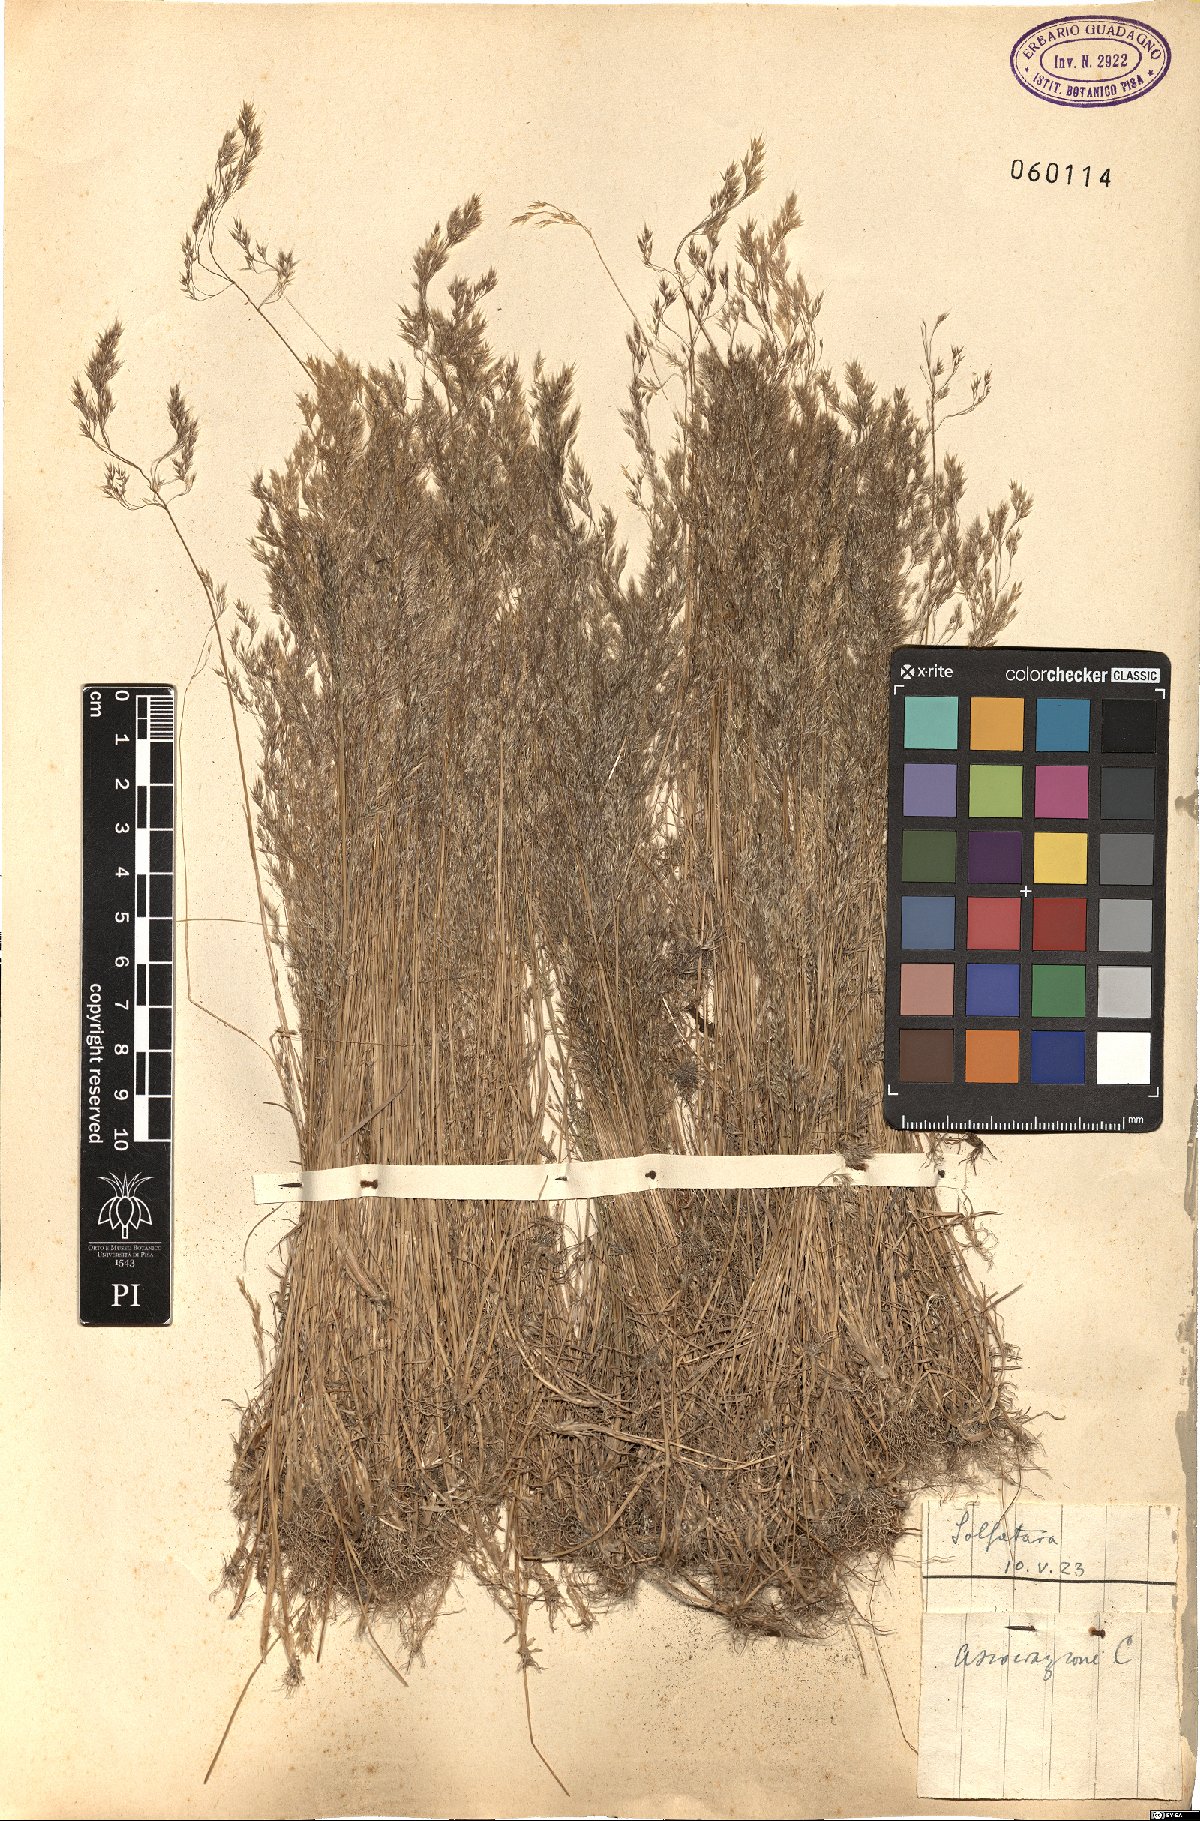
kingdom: Plantae
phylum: Tracheophyta
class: Liliopsida
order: Poales
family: Poaceae
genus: Agrostis
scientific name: Agrostis
